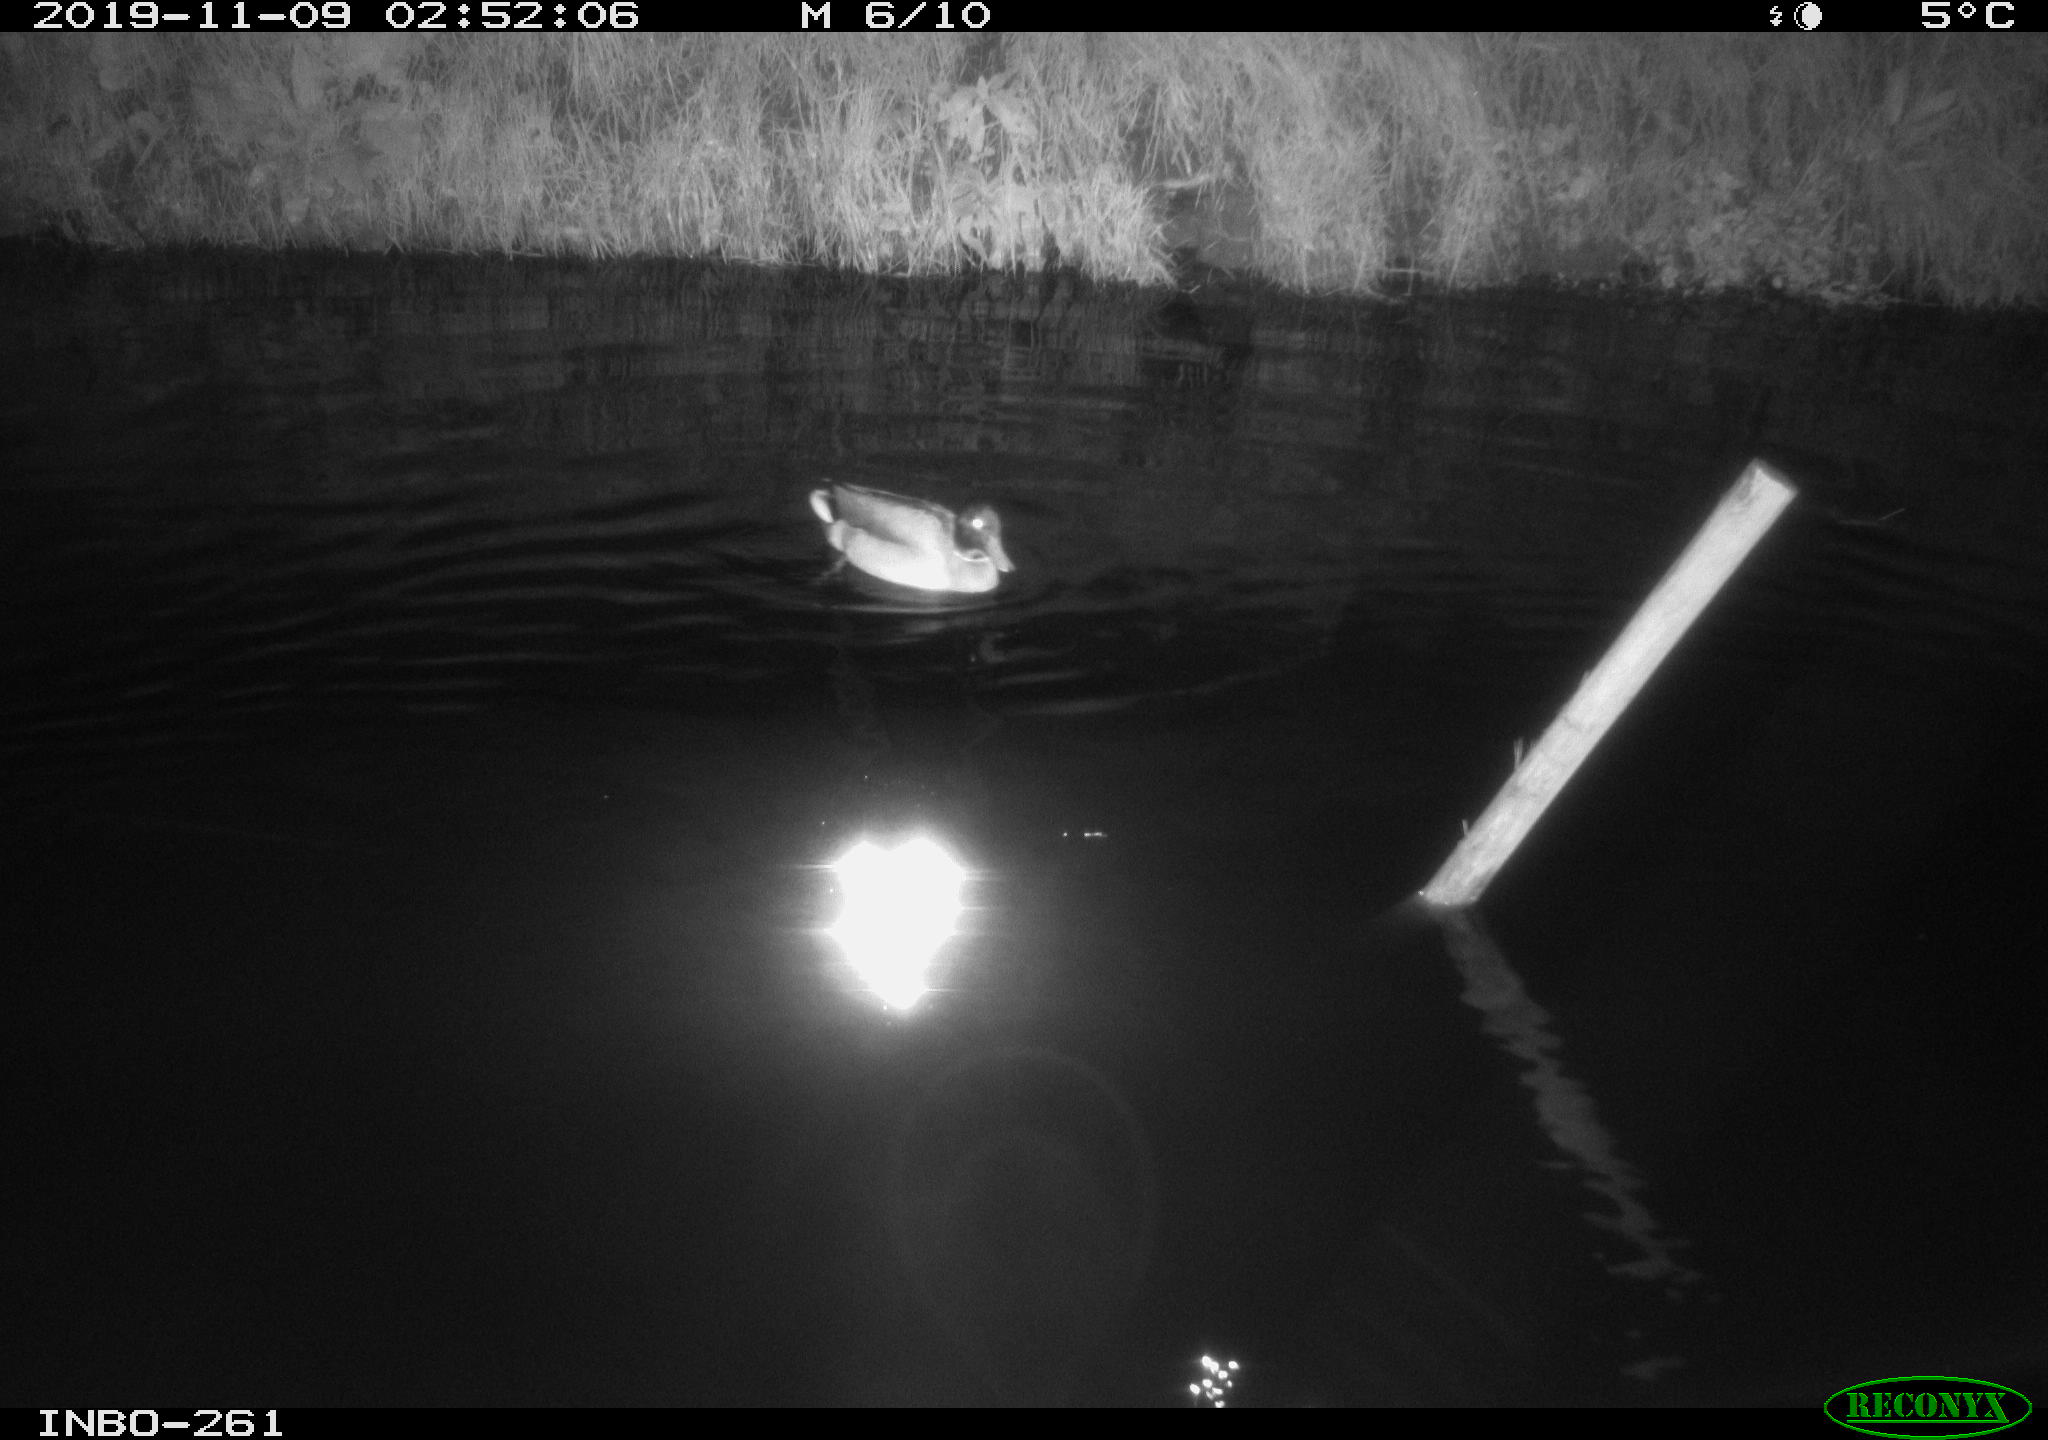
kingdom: Animalia
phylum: Chordata
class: Aves
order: Anseriformes
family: Anatidae
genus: Anas
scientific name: Anas platyrhynchos
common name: Mallard
